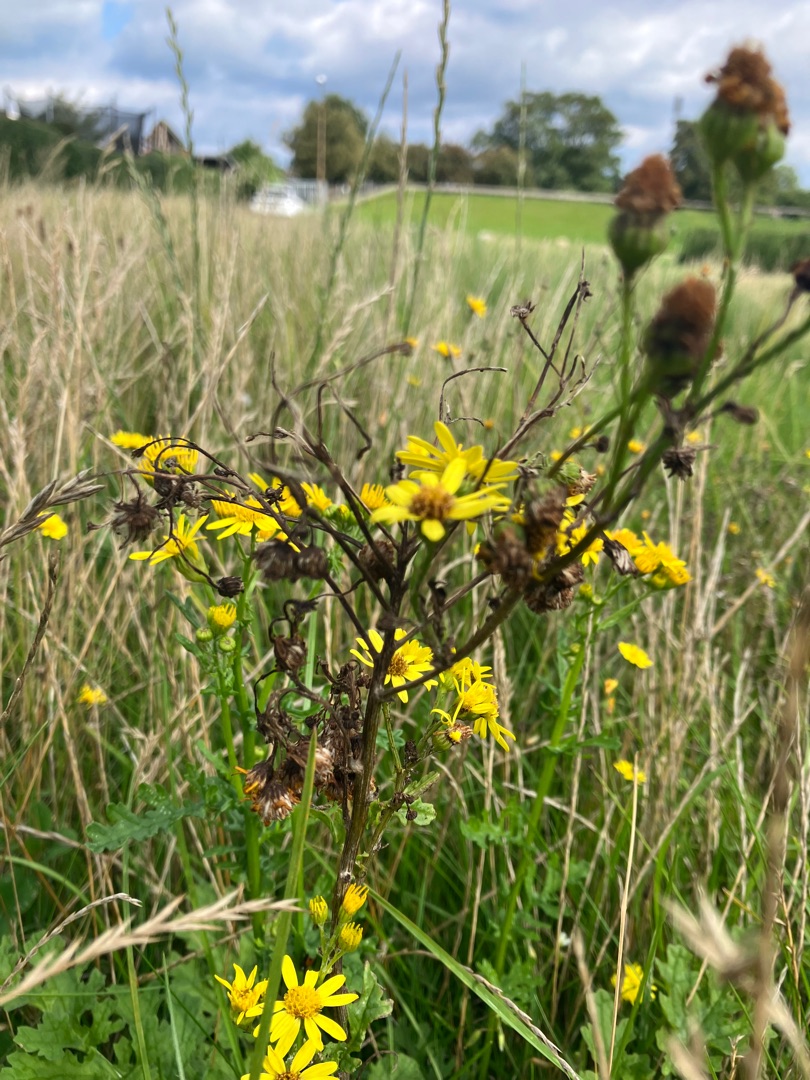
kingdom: Plantae
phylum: Tracheophyta
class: Magnoliopsida
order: Asterales
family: Asteraceae
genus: Jacobaea
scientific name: Jacobaea vulgaris
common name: Eng-brandbæger
